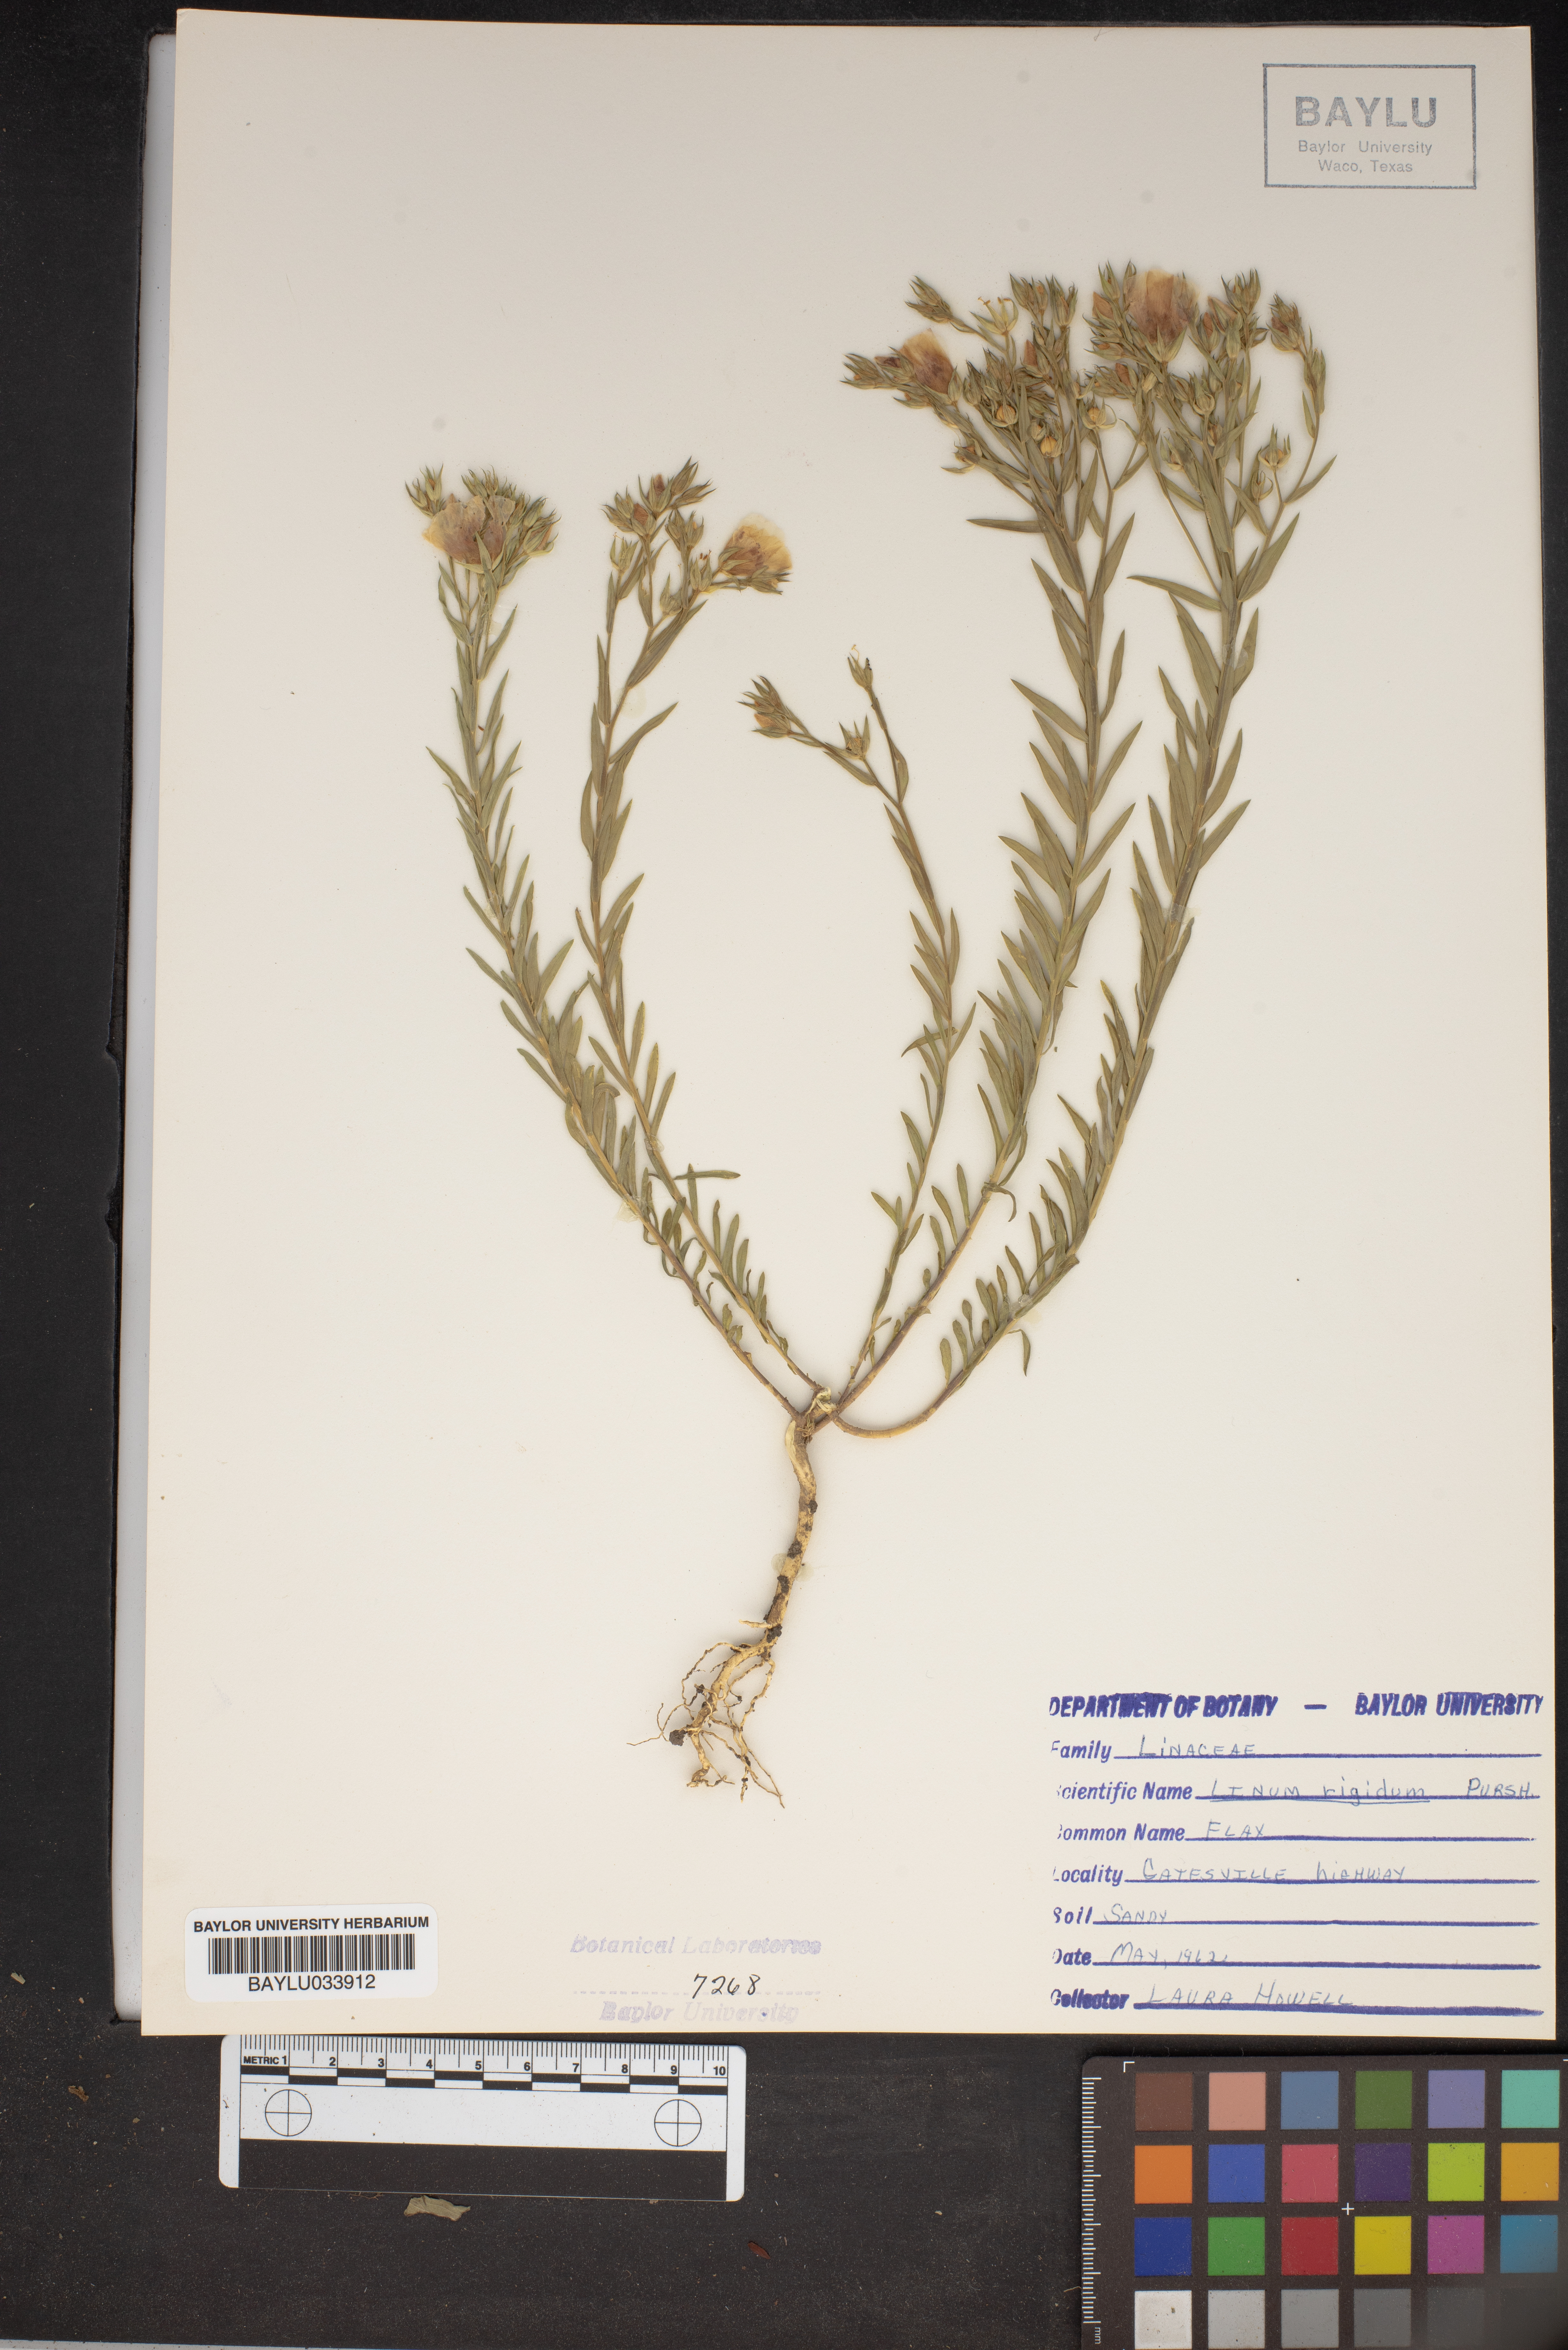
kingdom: Plantae
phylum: Tracheophyta
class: Magnoliopsida
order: Malpighiales
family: Linaceae
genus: Linum
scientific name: Linum rigidum
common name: Stiff-stem flax
